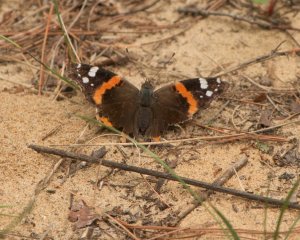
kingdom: Animalia
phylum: Arthropoda
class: Insecta
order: Lepidoptera
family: Nymphalidae
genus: Vanessa
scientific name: Vanessa atalanta
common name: Red Admiral
